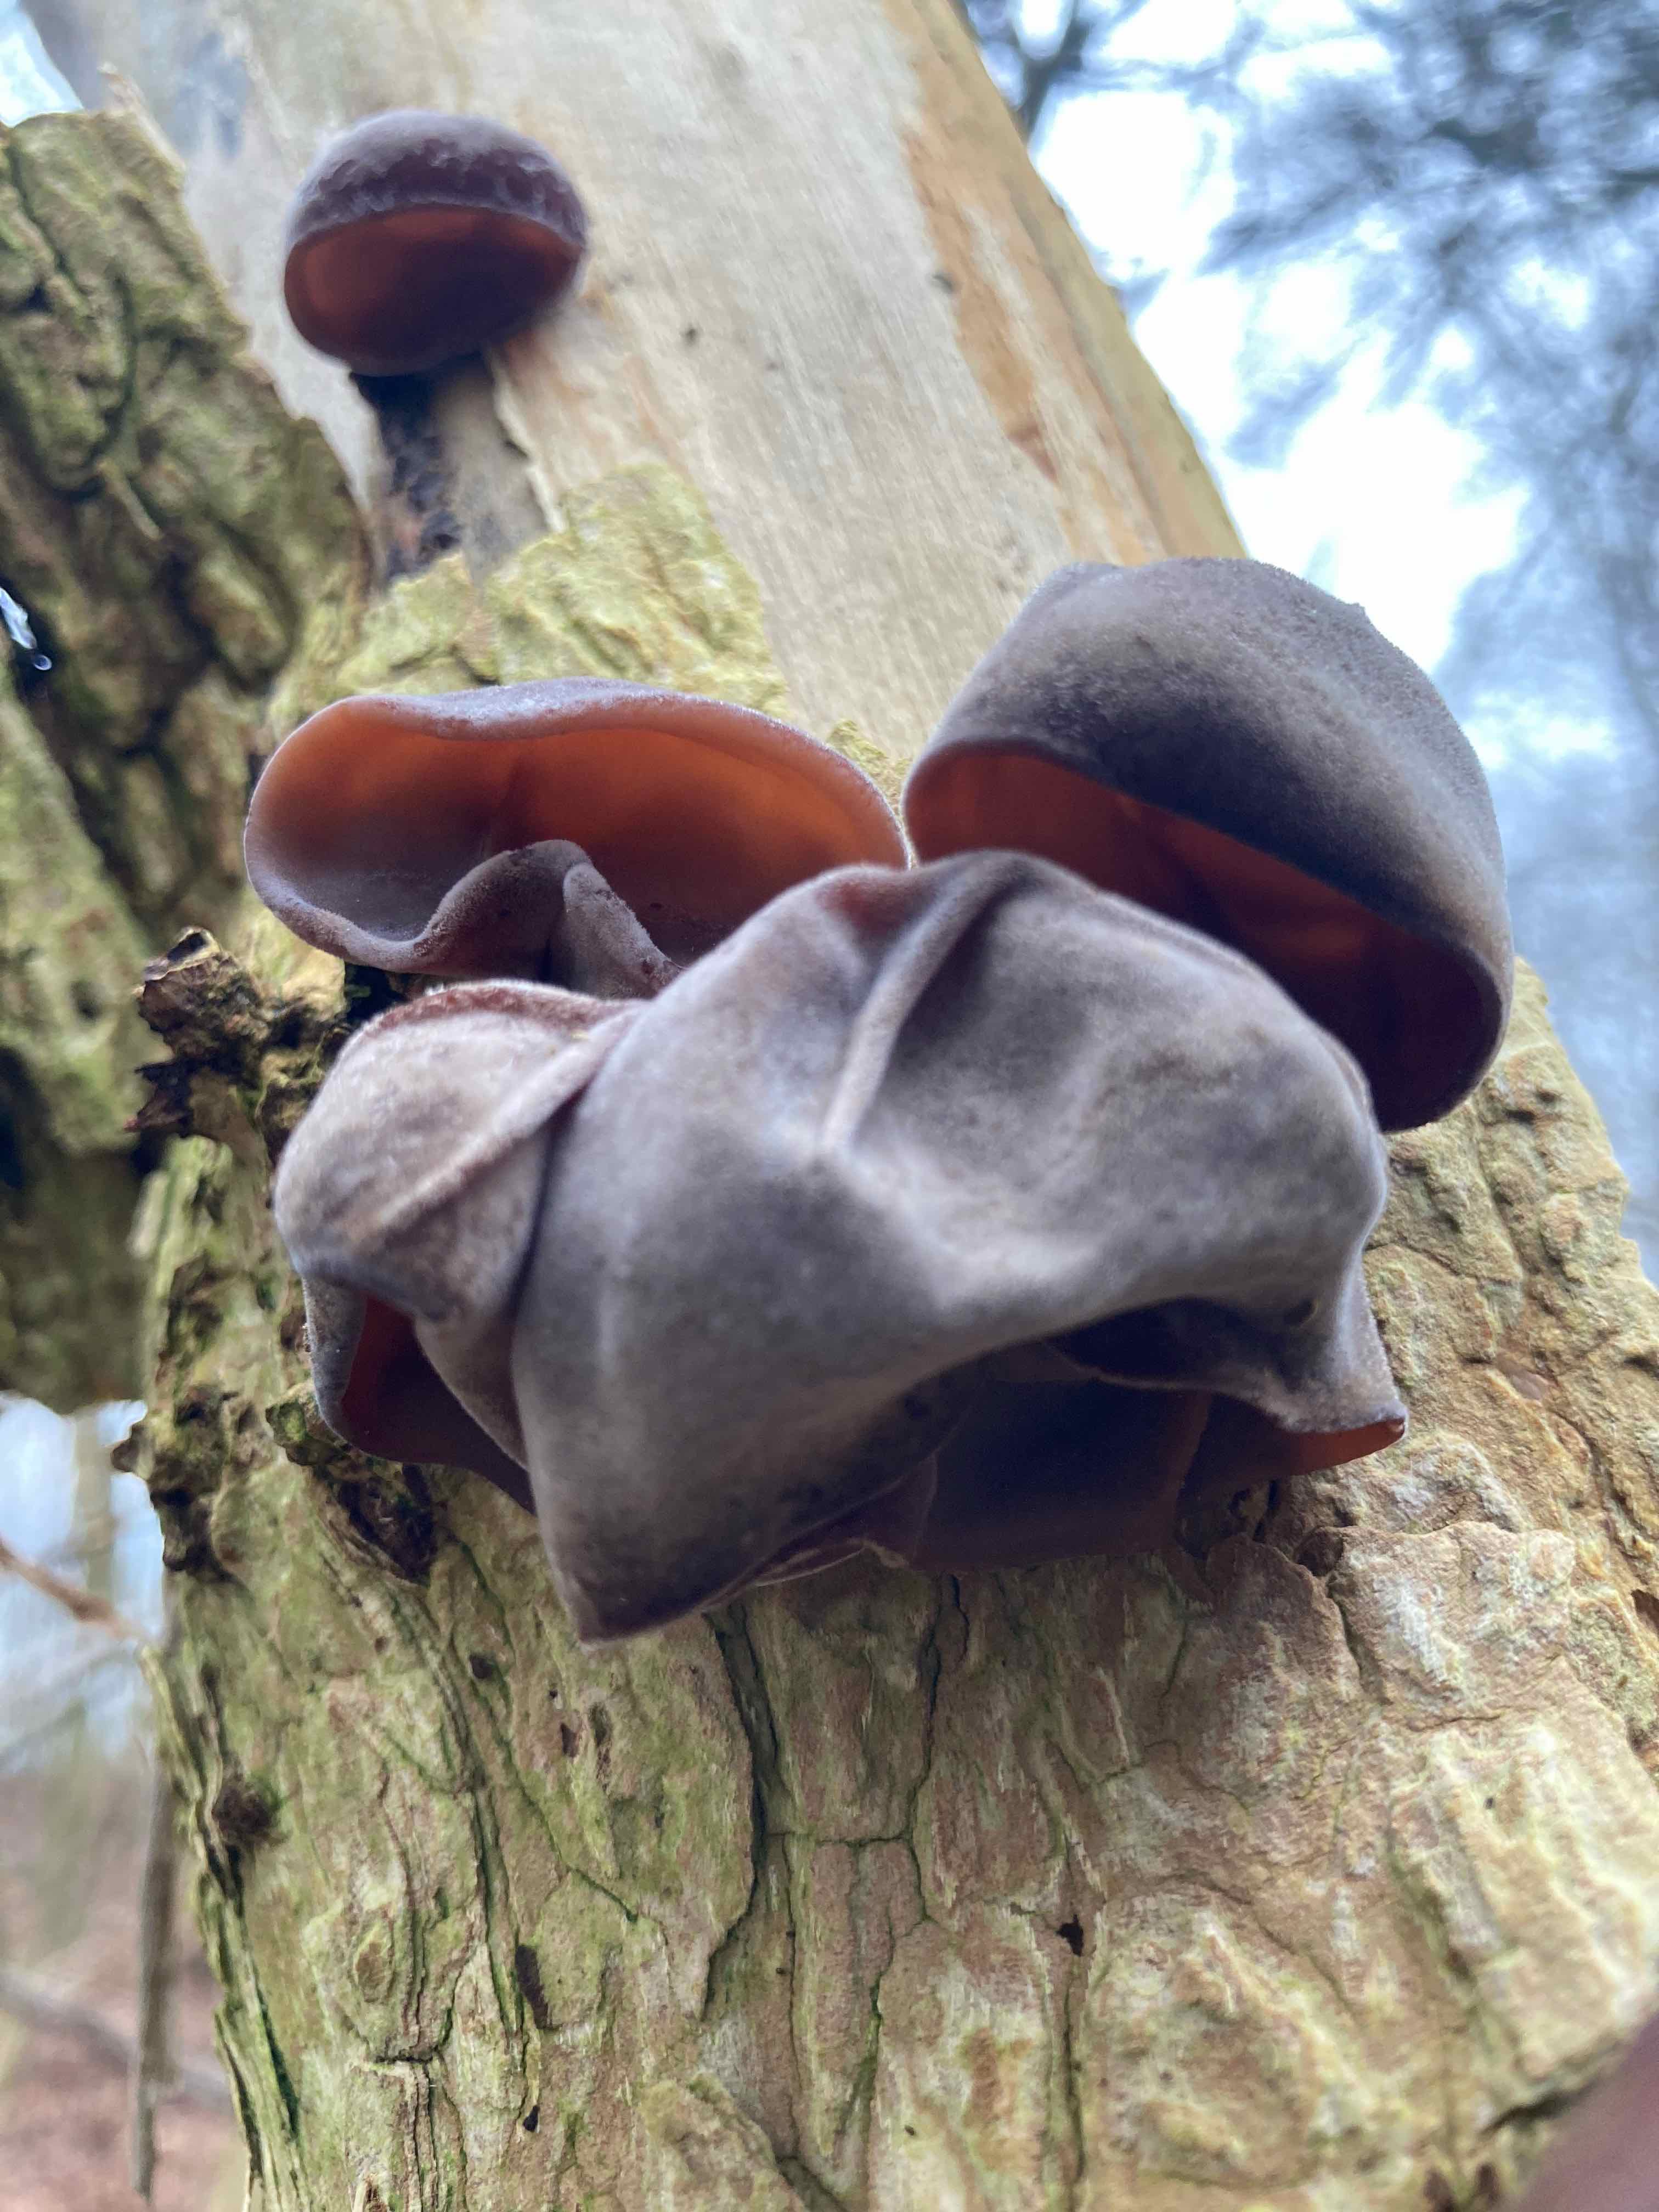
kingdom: Fungi
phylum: Basidiomycota
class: Agaricomycetes
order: Auriculariales
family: Auriculariaceae
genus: Auricularia
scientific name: Auricularia auricula-judae
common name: almindelig judasøre
